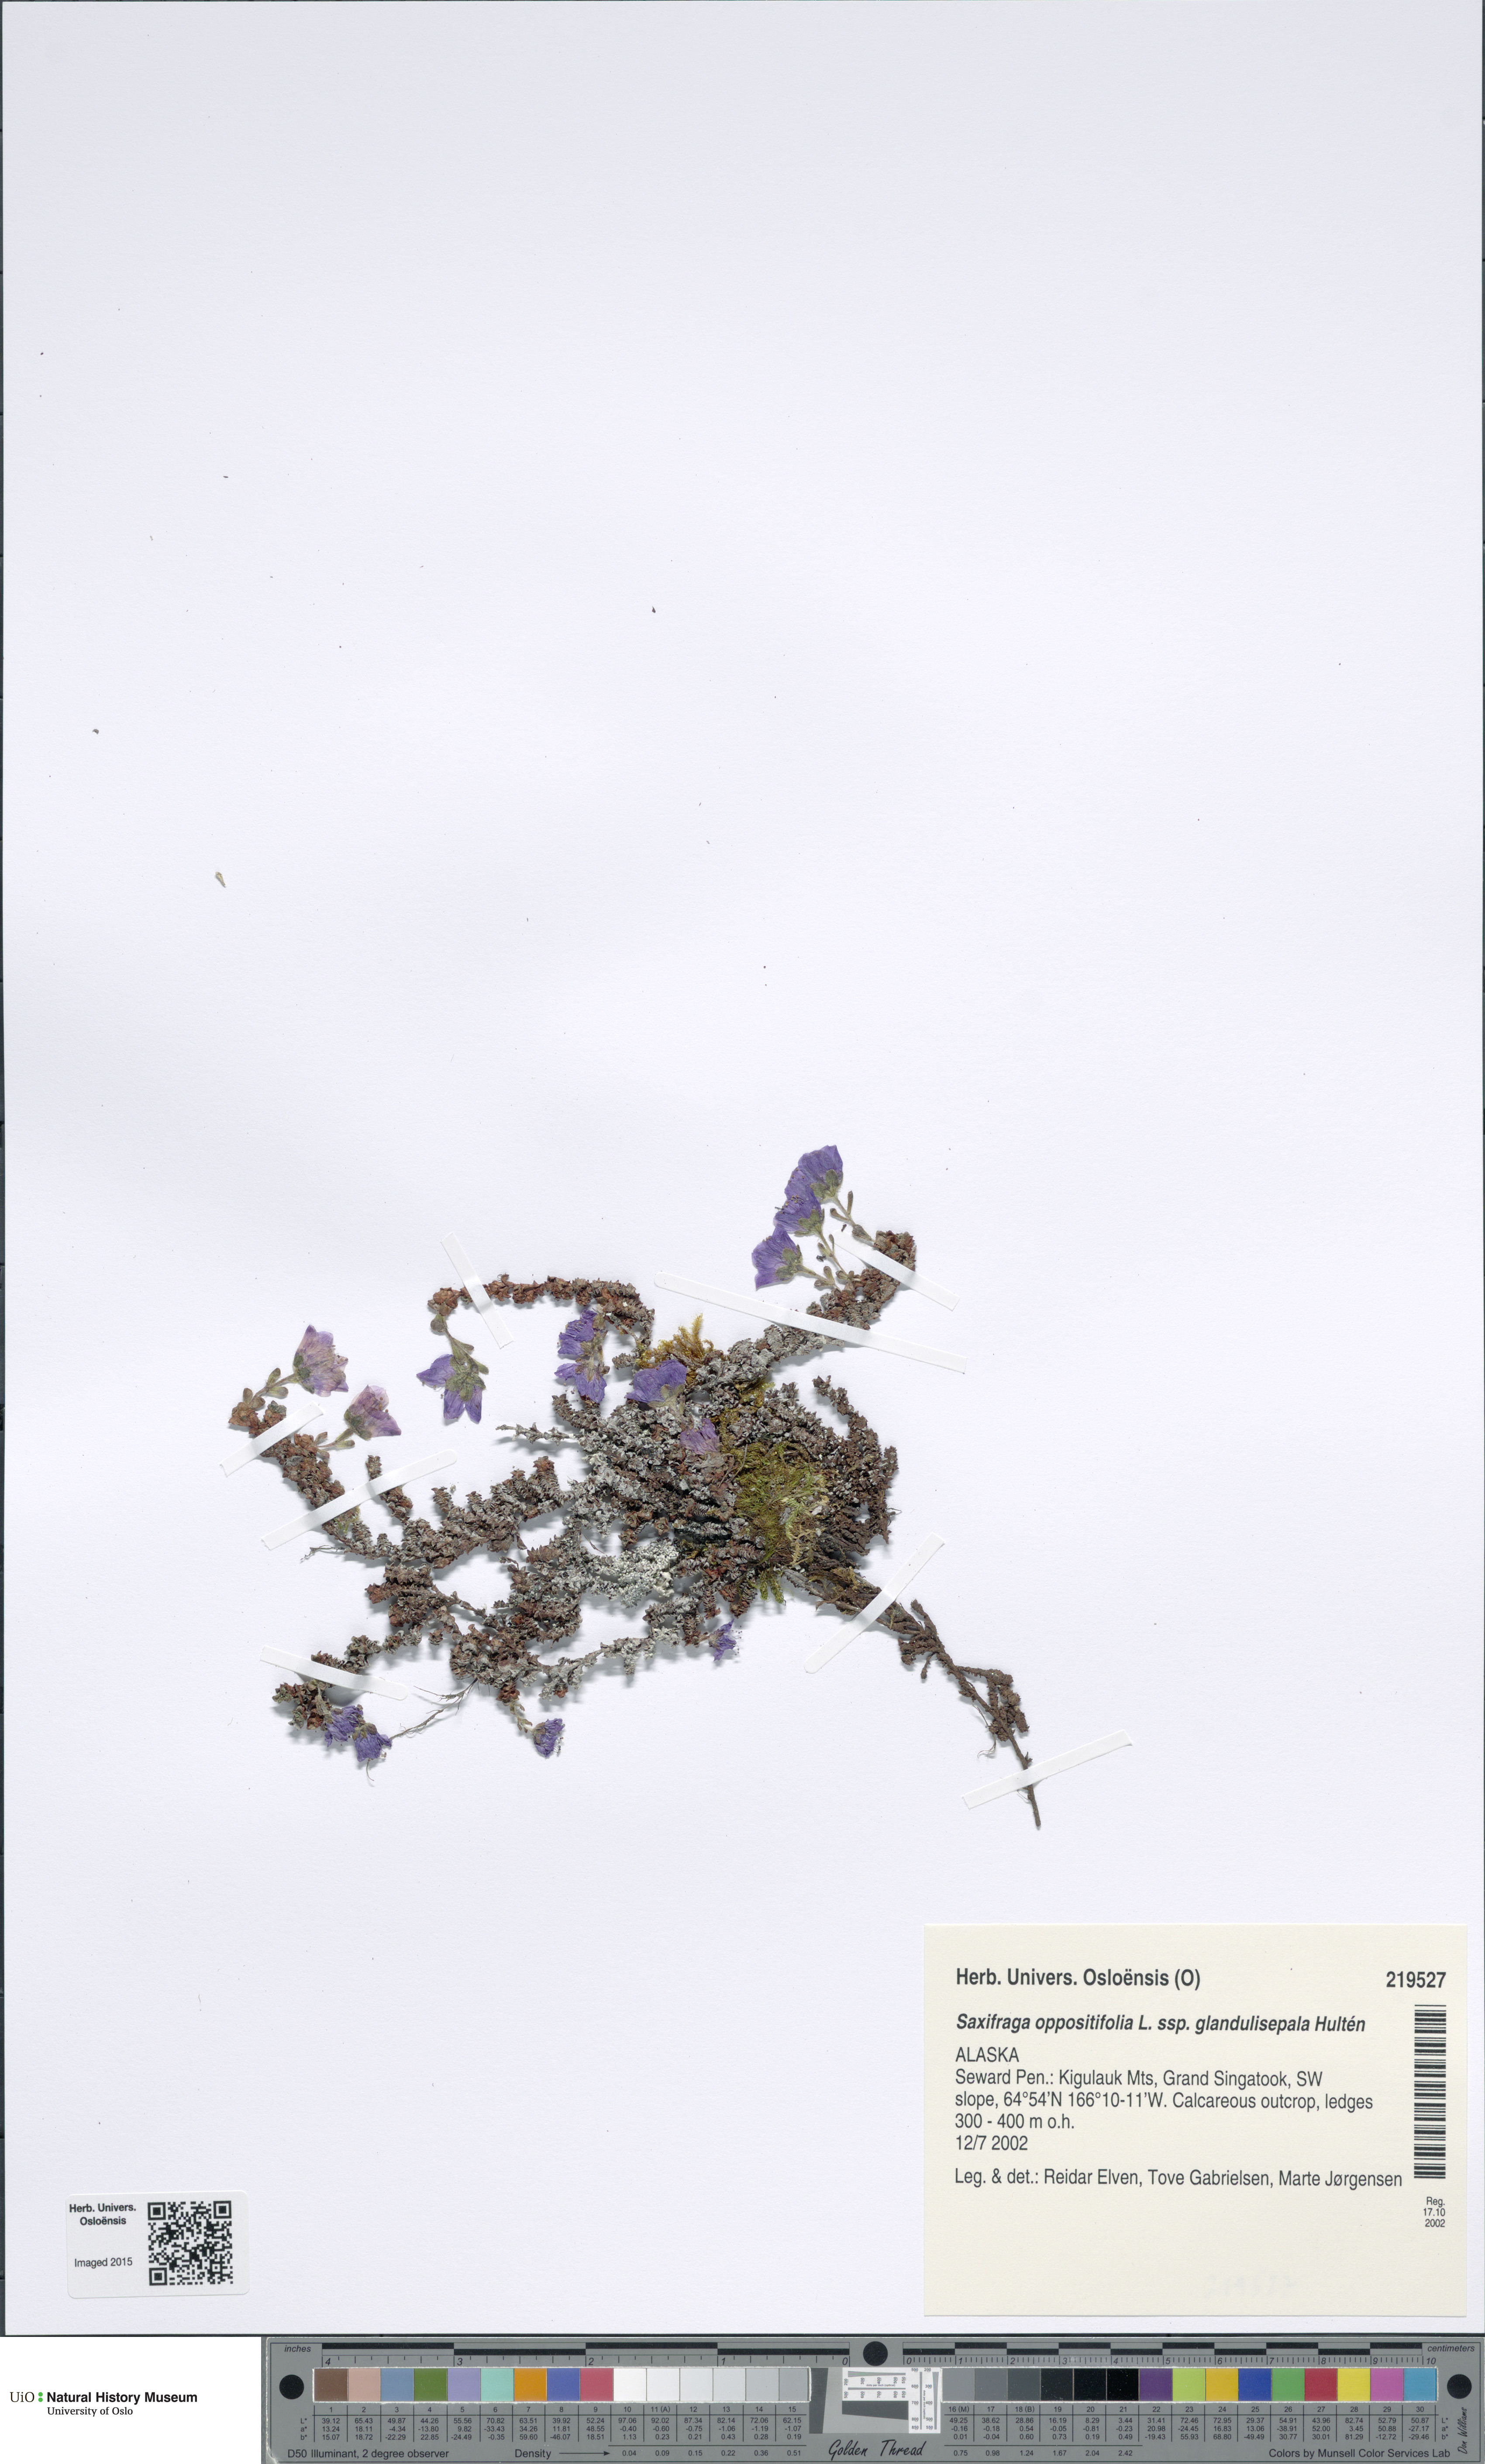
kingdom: Plantae
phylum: Tracheophyta
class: Magnoliopsida
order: Saxifragales
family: Saxifragaceae
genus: Saxifraga
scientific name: Saxifraga oppositifolia
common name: Purple saxifrage
